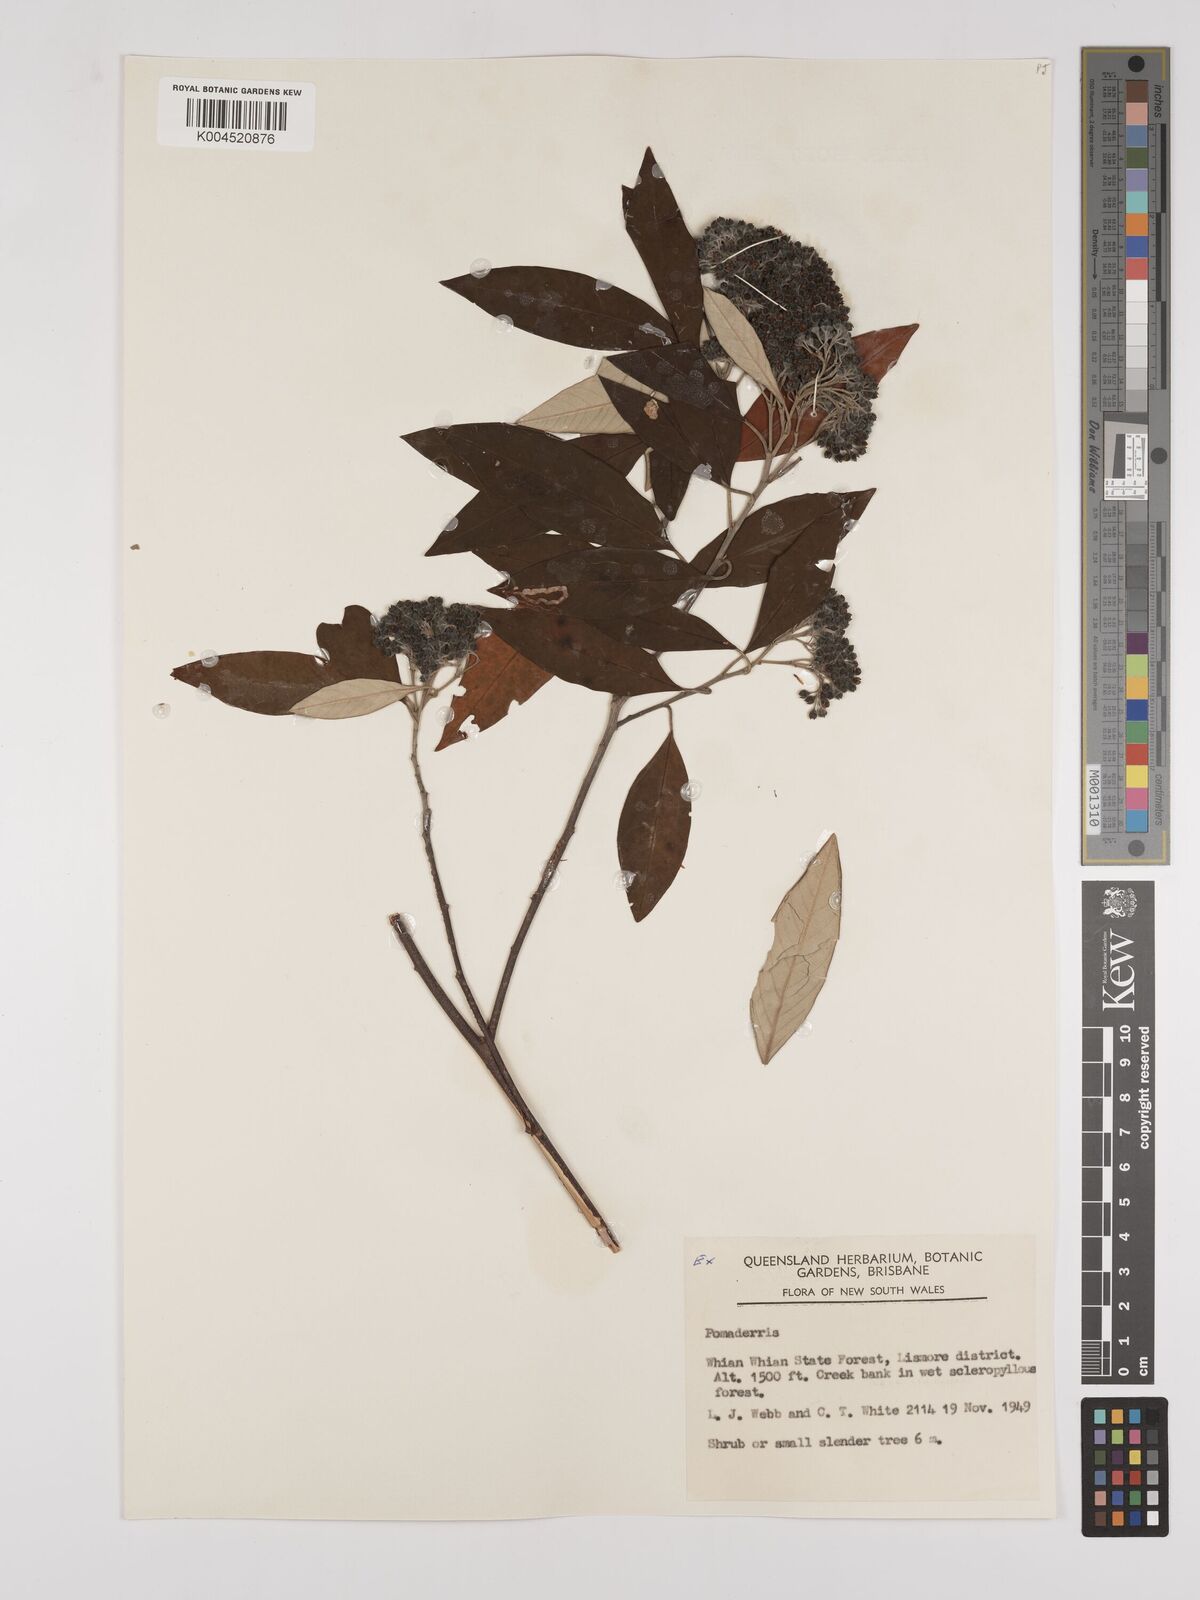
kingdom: Plantae
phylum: Tracheophyta
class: Magnoliopsida
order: Rosales
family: Rhamnaceae
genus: Pomaderris
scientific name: Pomaderris
